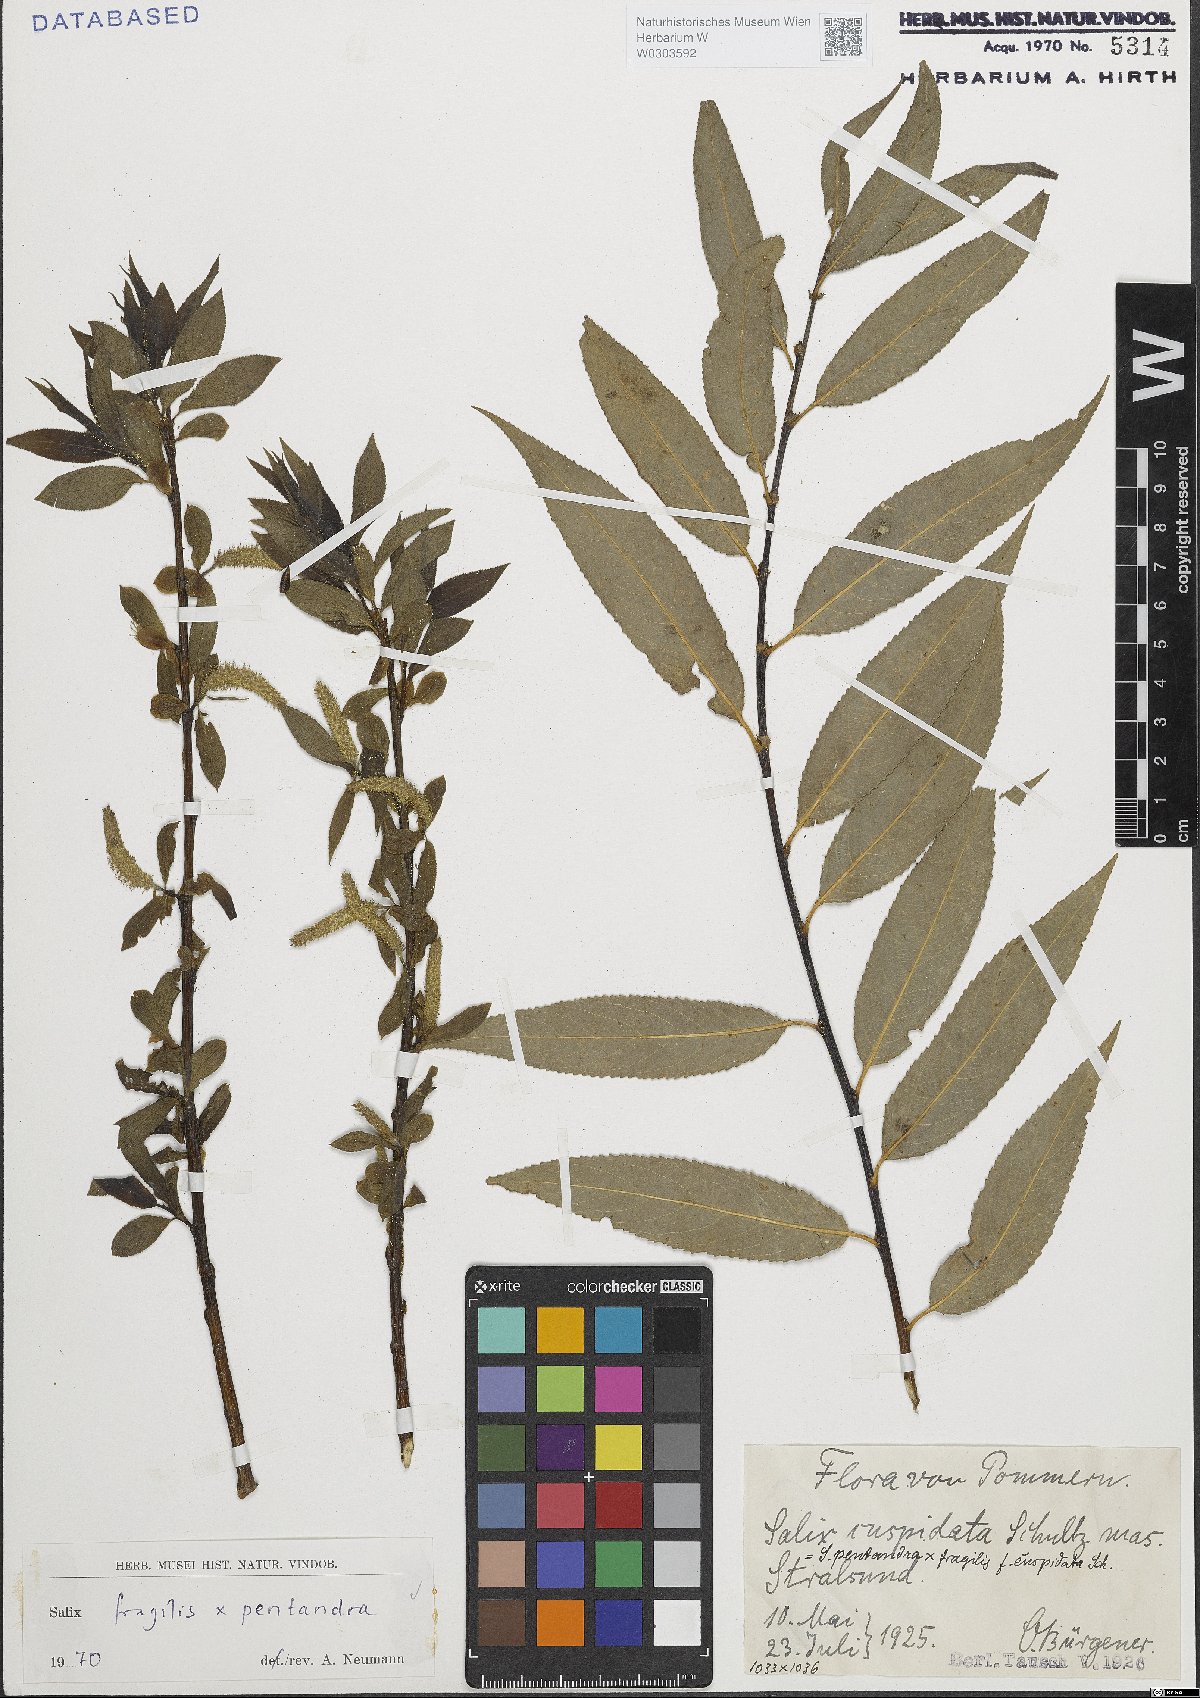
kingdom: Plantae
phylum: Tracheophyta
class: Magnoliopsida
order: Malpighiales
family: Salicaceae
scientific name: Salicaceae
